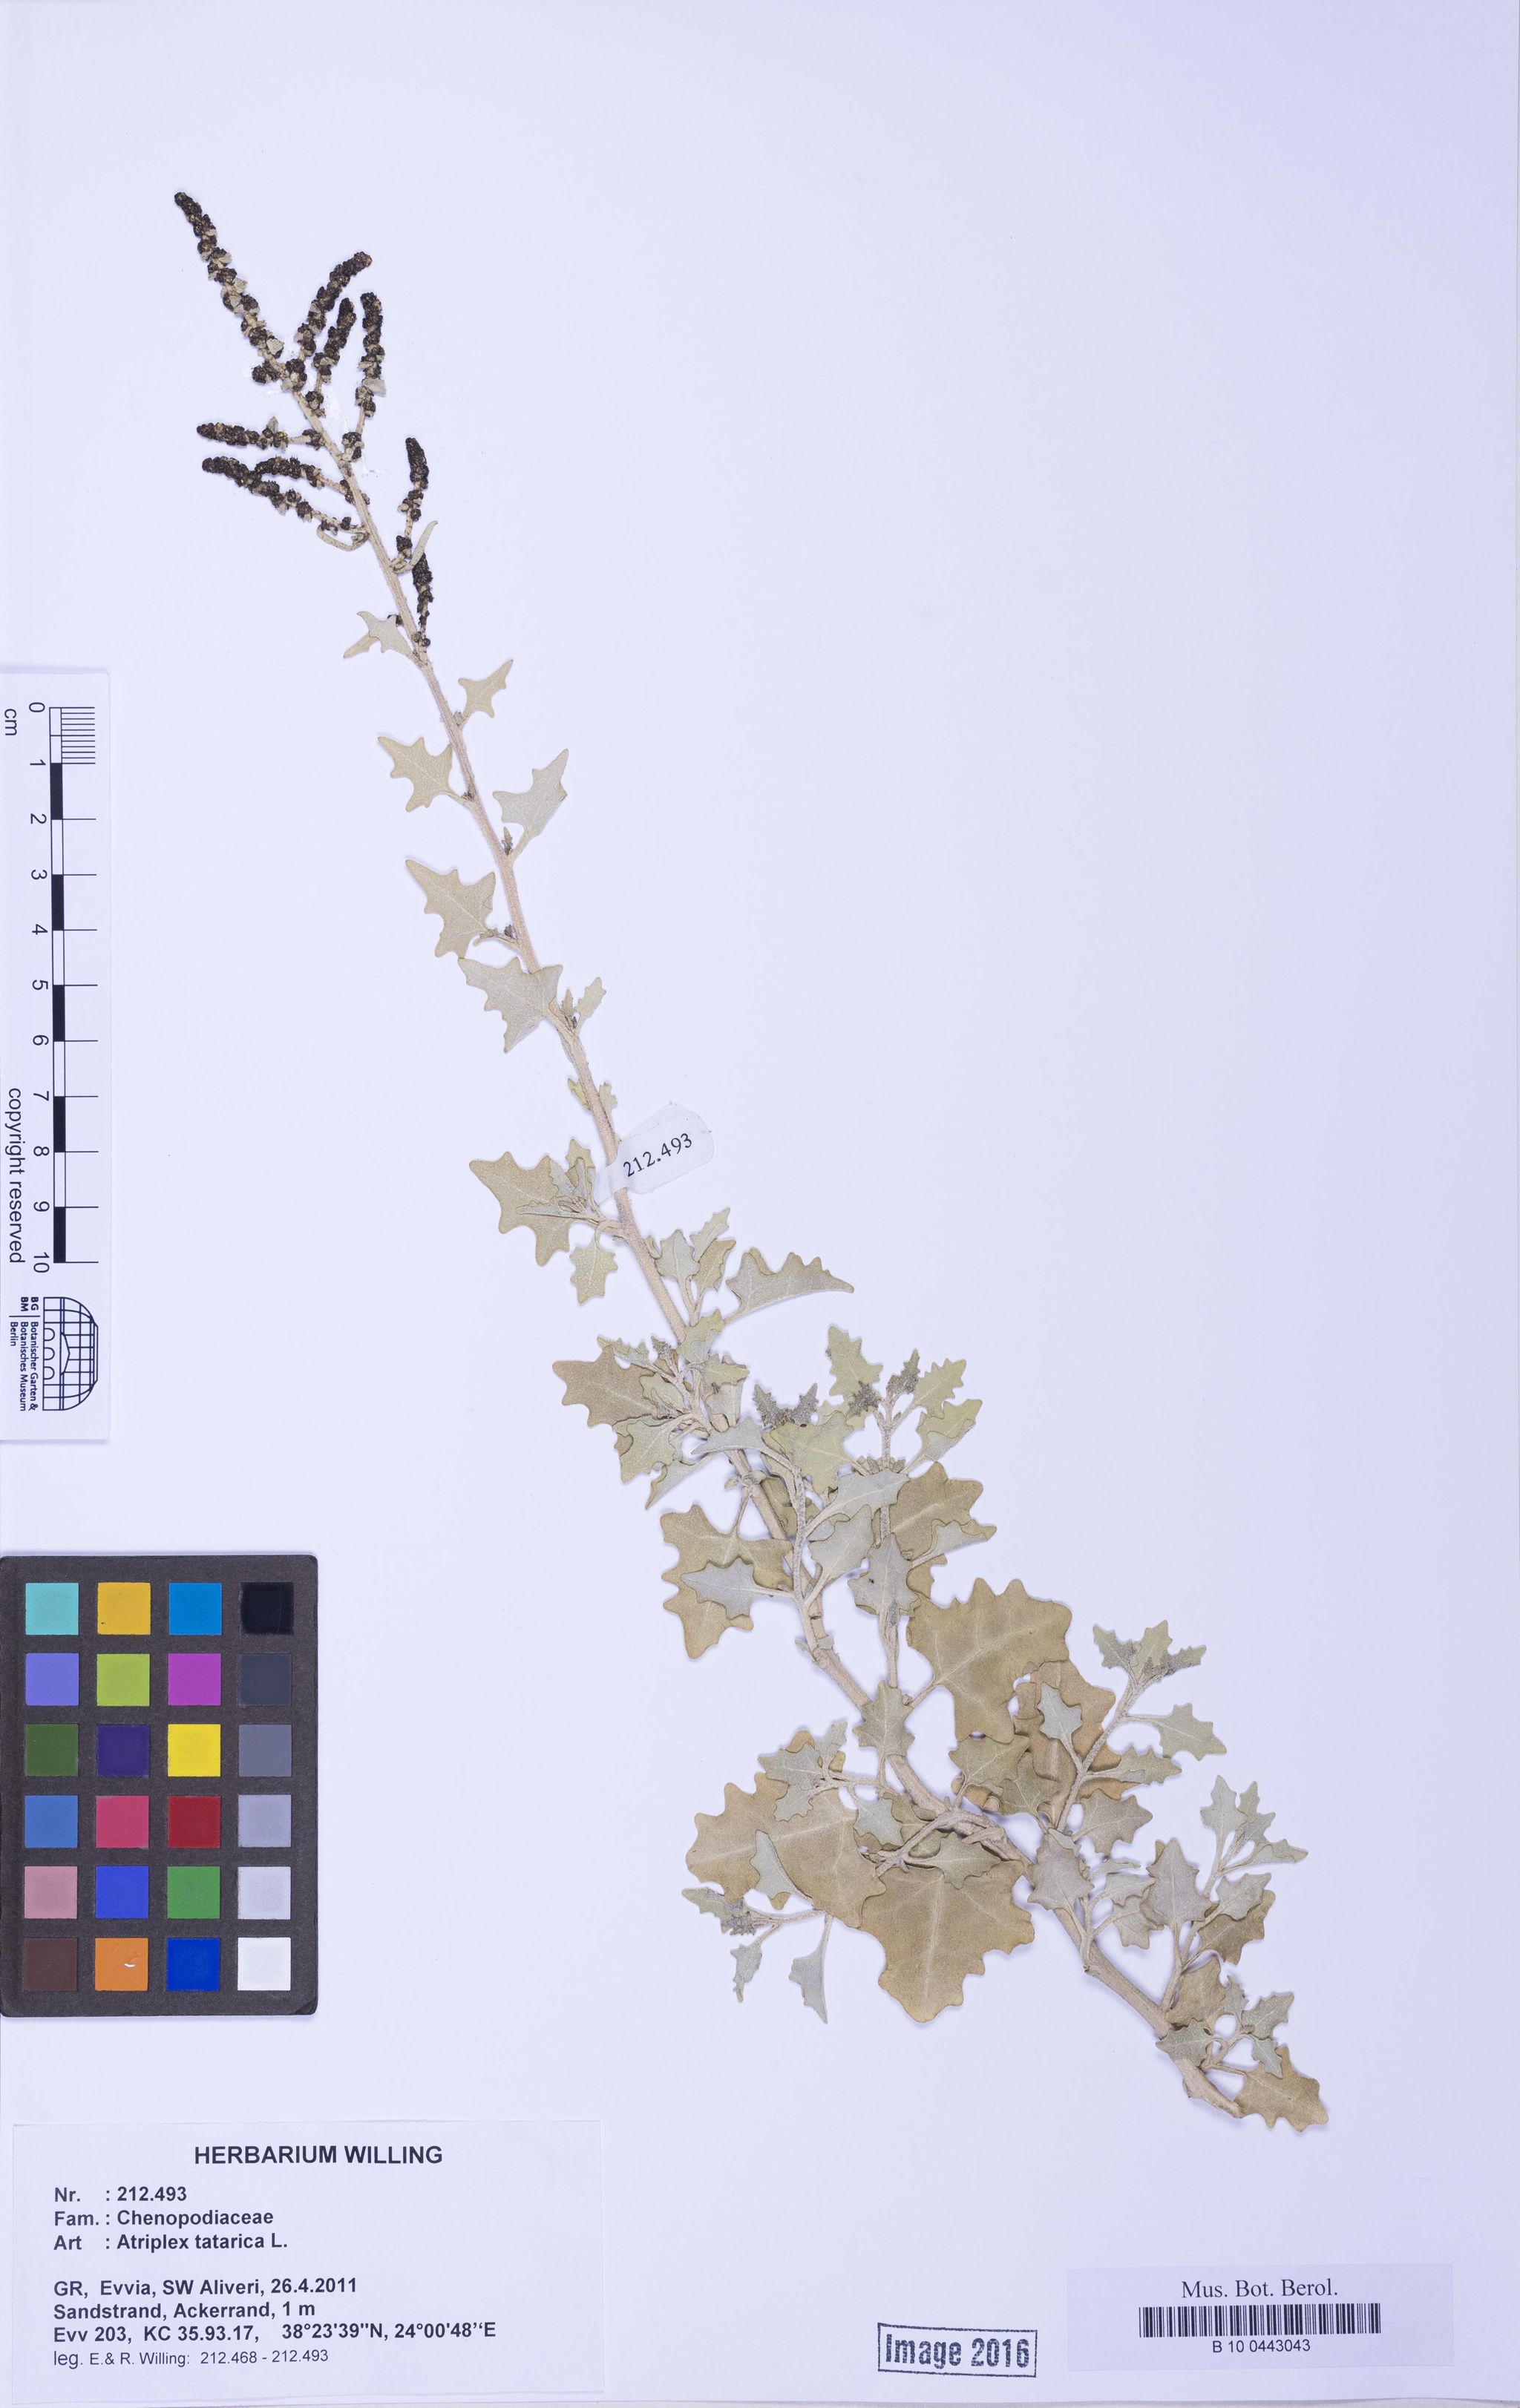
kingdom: Plantae
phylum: Tracheophyta
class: Magnoliopsida
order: Caryophyllales
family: Amaranthaceae
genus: Atriplex
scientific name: Atriplex tatarica
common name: Tatarian orache
